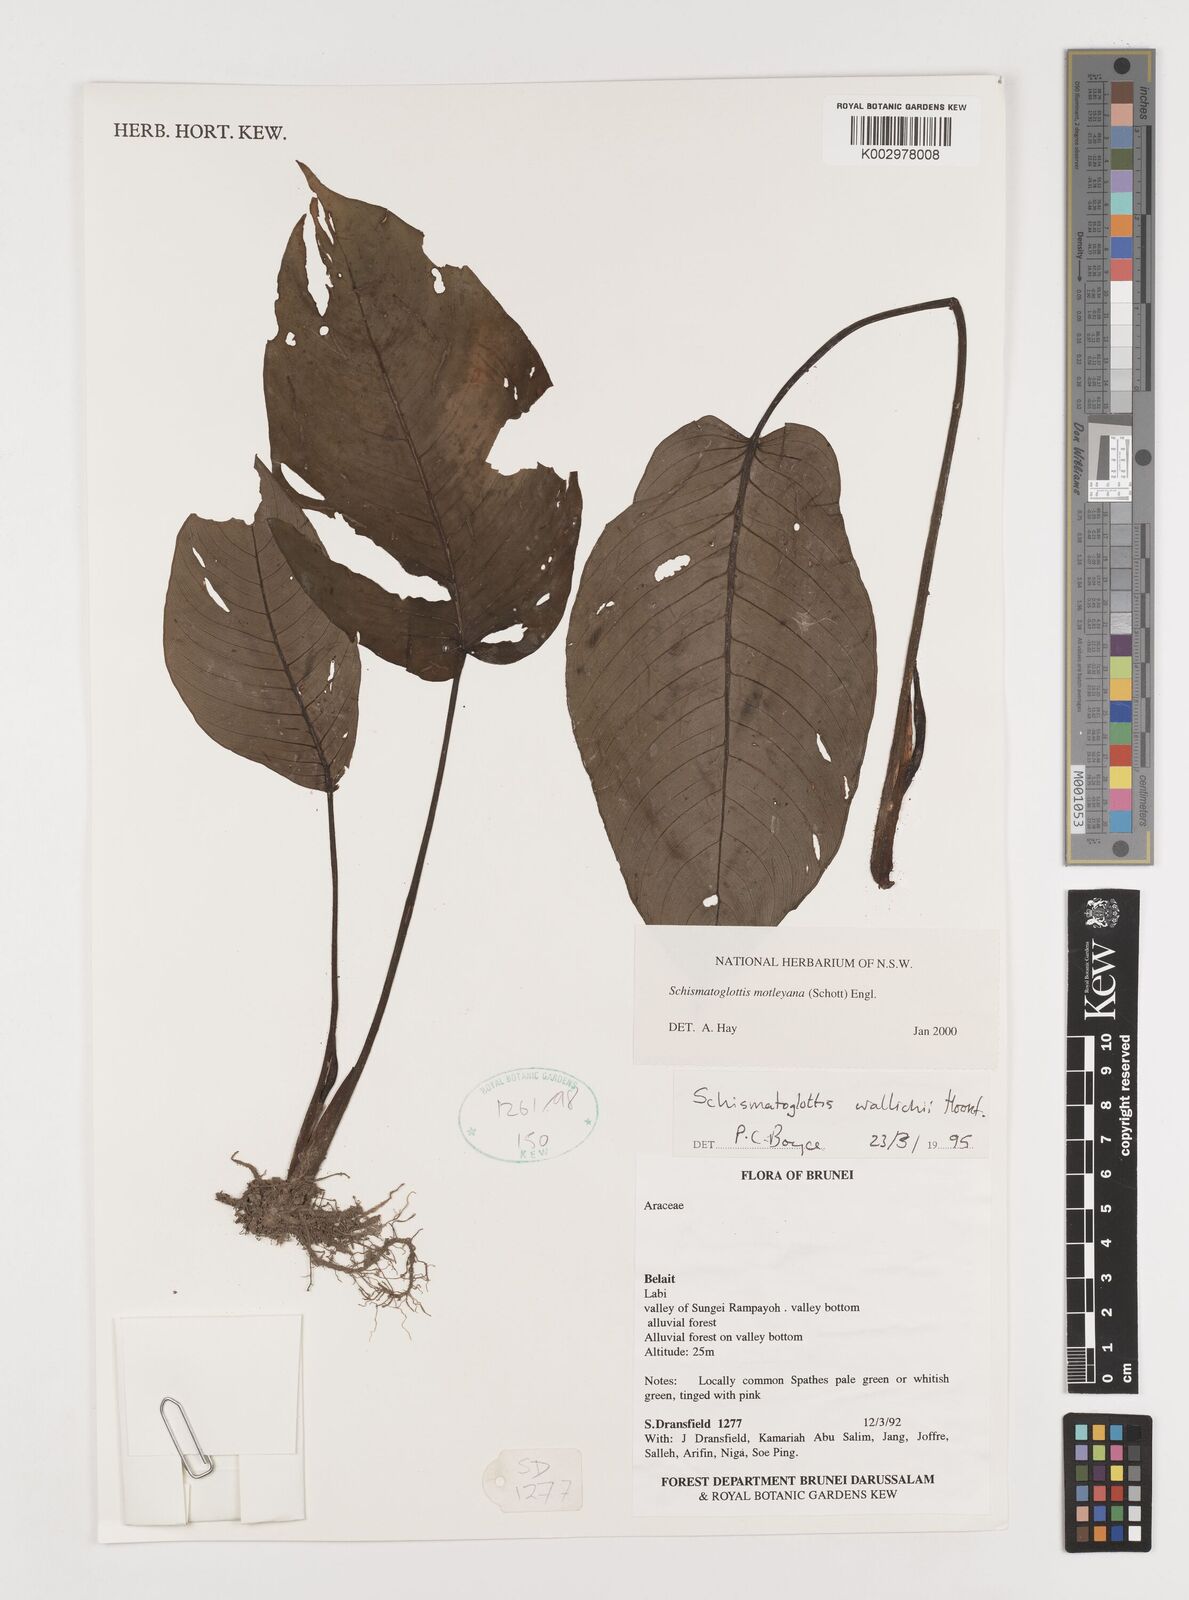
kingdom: Plantae
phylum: Tracheophyta
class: Liliopsida
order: Alismatales
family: Araceae
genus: Schismatoglottis
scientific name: Schismatoglottis motleyana
